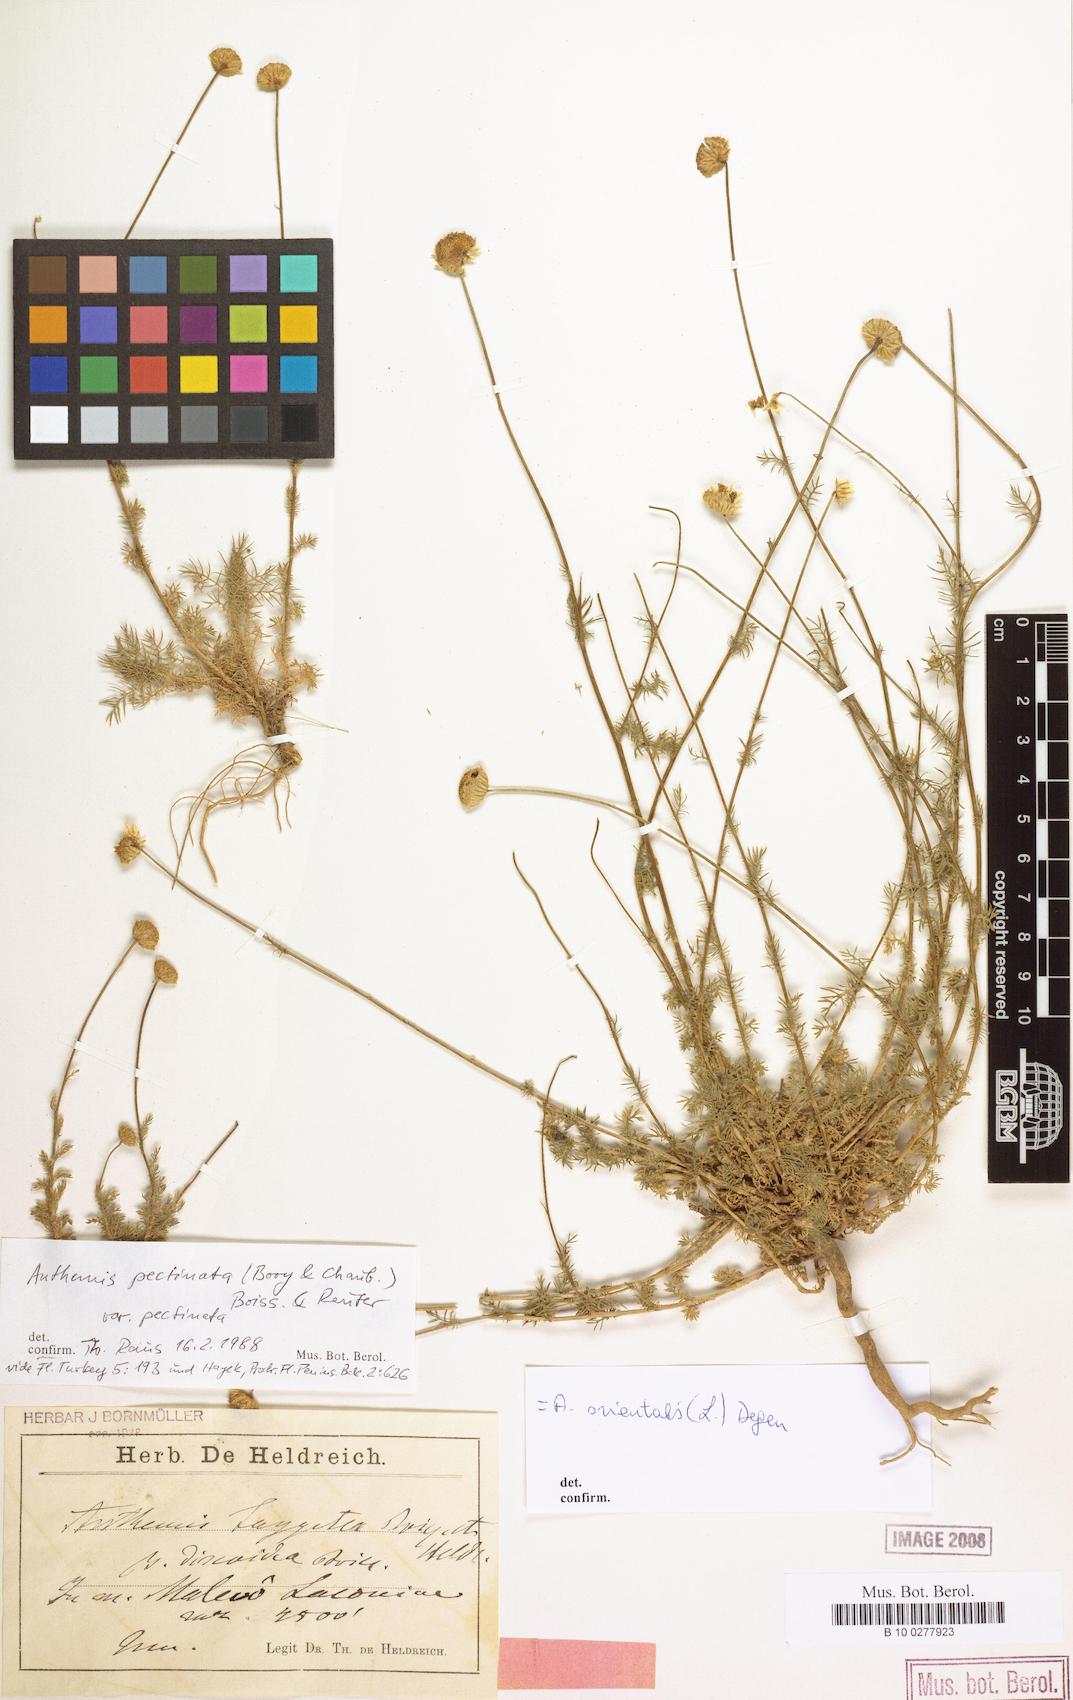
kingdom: Plantae
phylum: Tracheophyta
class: Magnoliopsida
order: Asterales
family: Asteraceae
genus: Anthemis
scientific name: Anthemis orientalis
